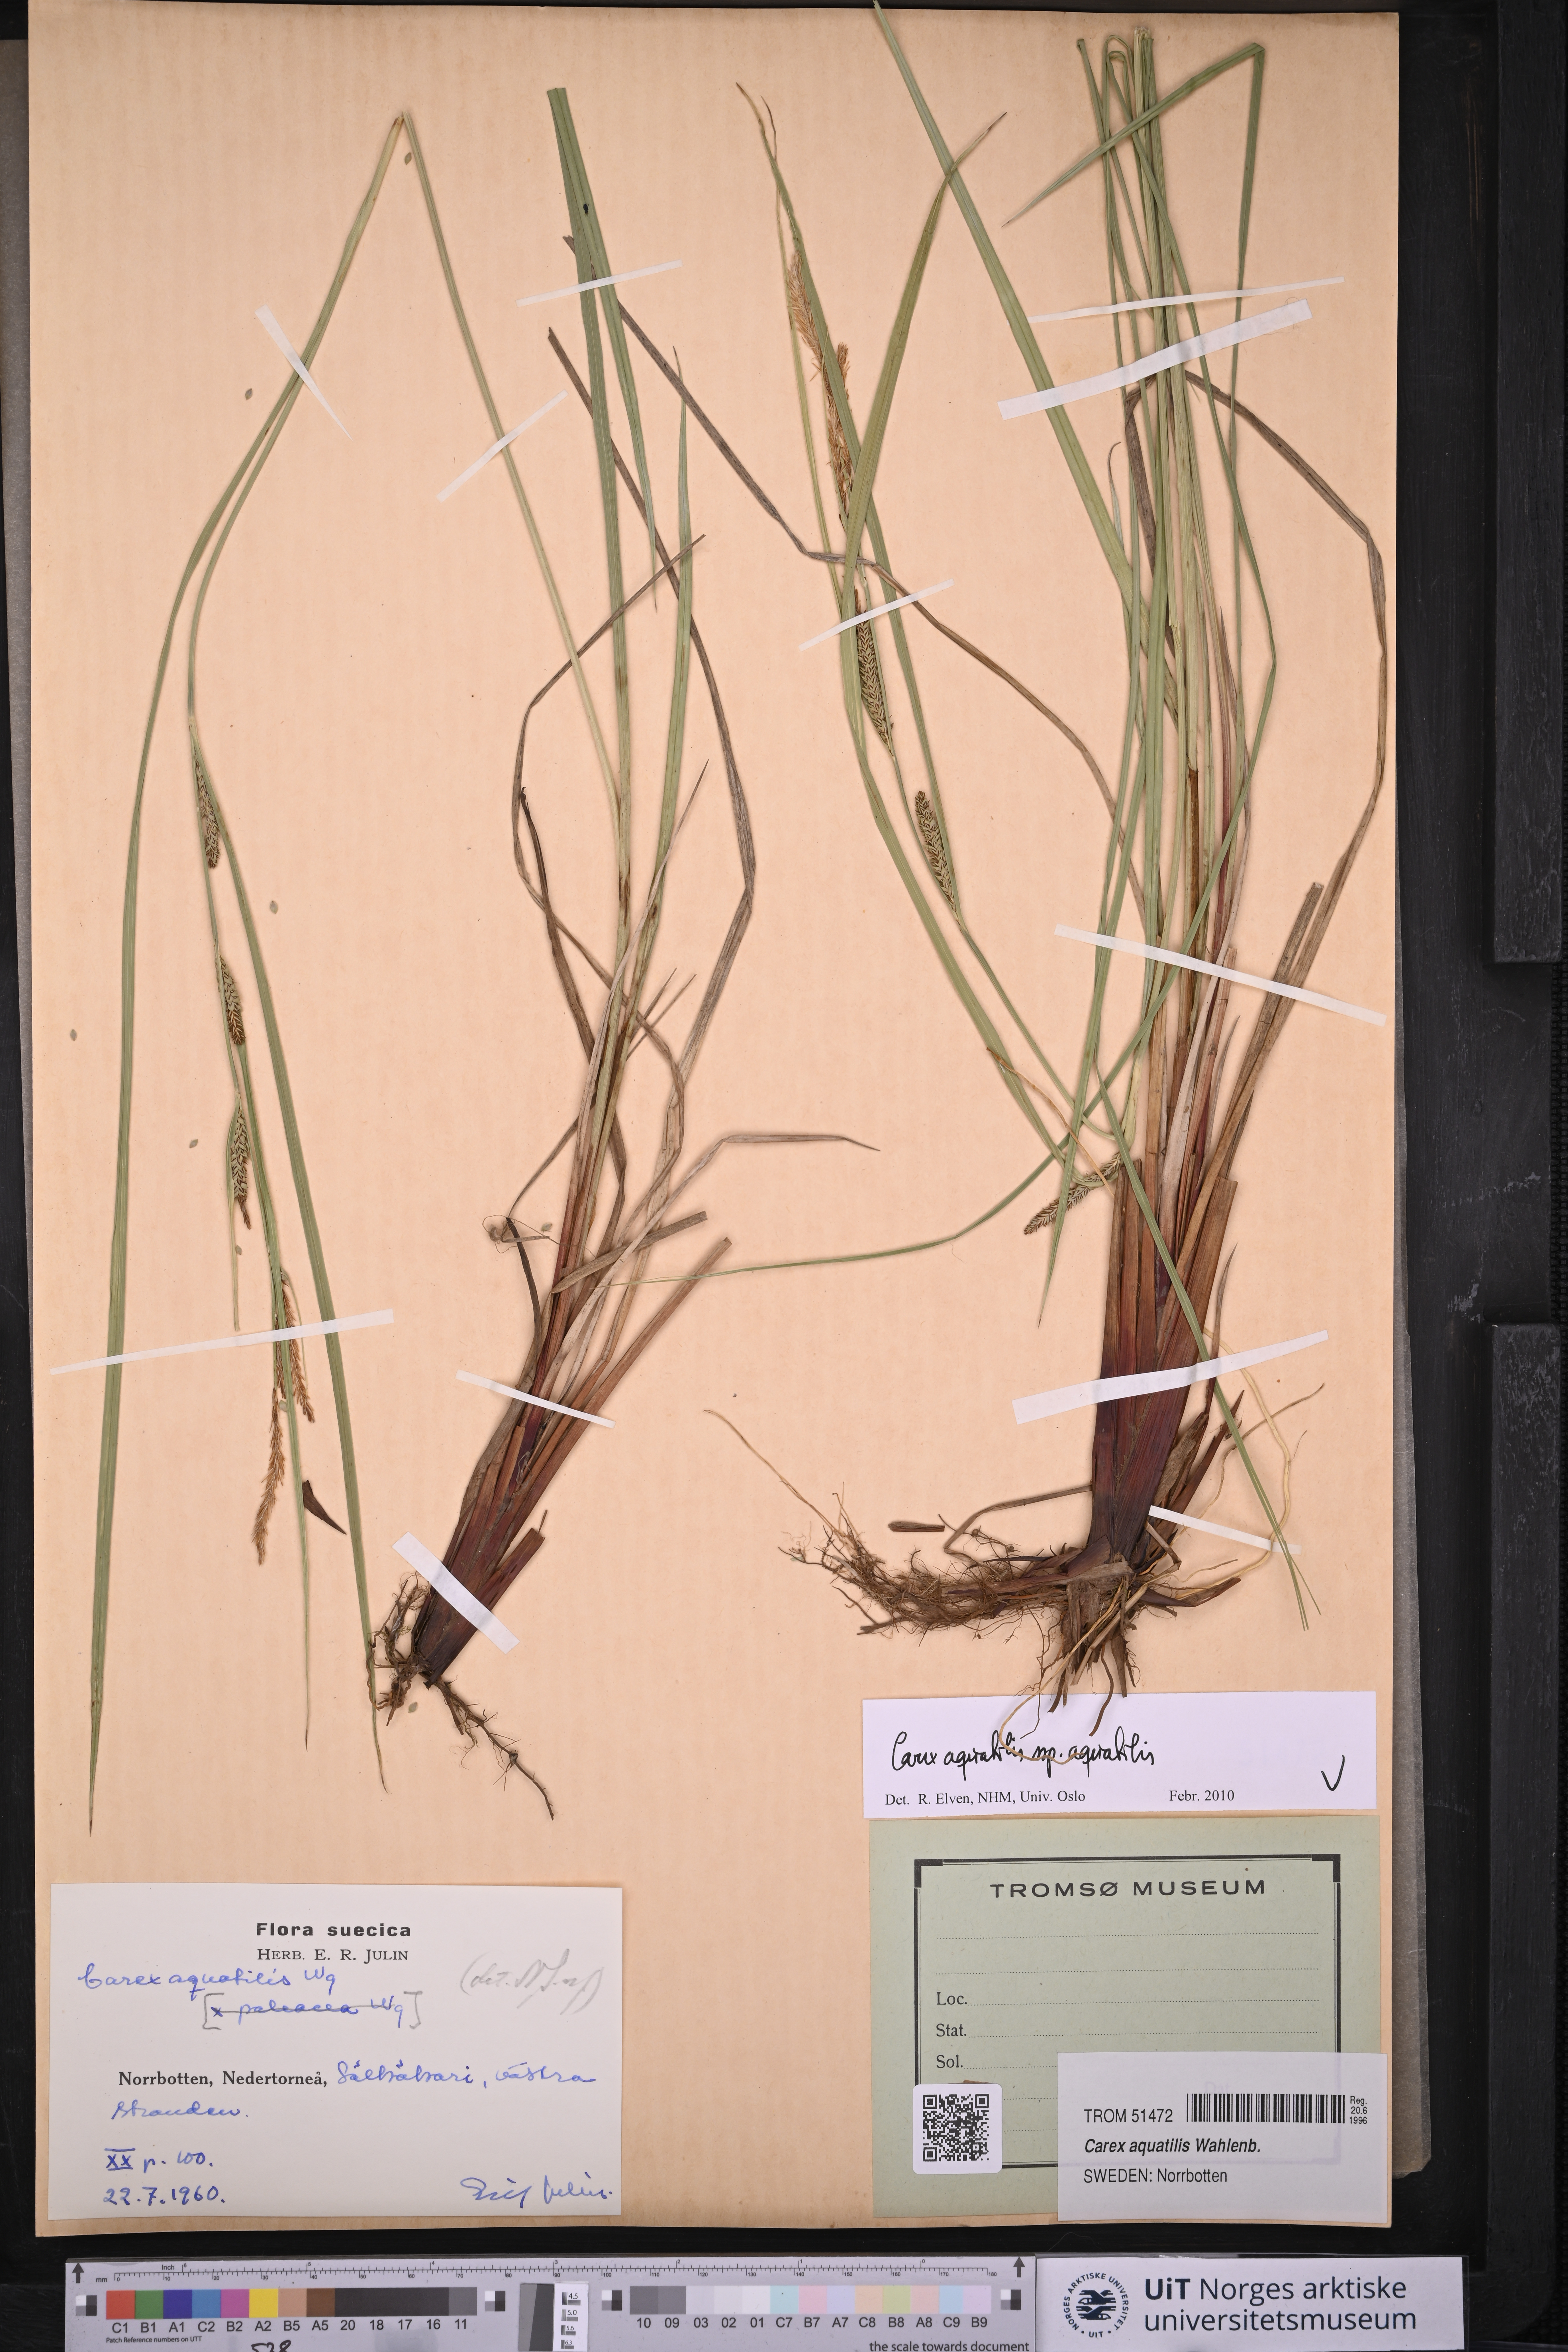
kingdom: Plantae
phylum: Tracheophyta
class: Liliopsida
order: Poales
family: Cyperaceae
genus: Carex
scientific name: Carex aquatilis
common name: Water sedge
